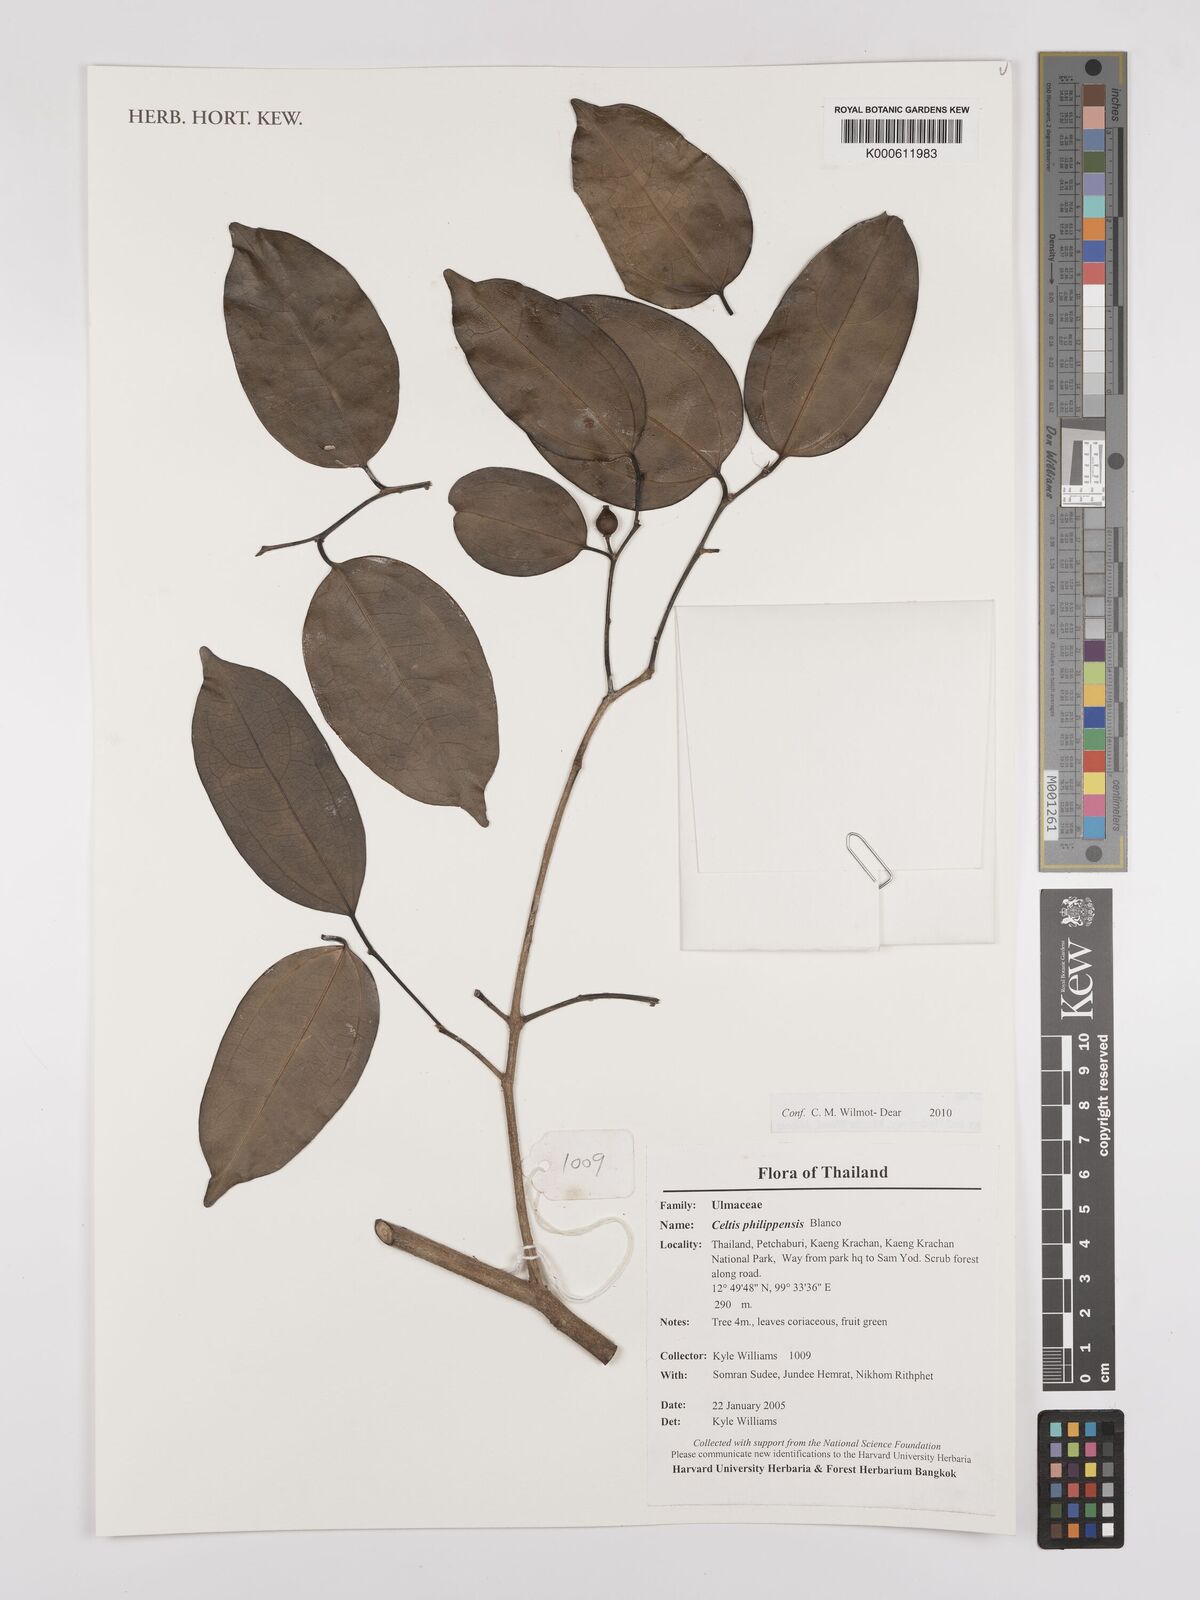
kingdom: Plantae
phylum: Tracheophyta
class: Magnoliopsida
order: Rosales
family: Cannabaceae
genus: Celtis
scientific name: Celtis philippensis
